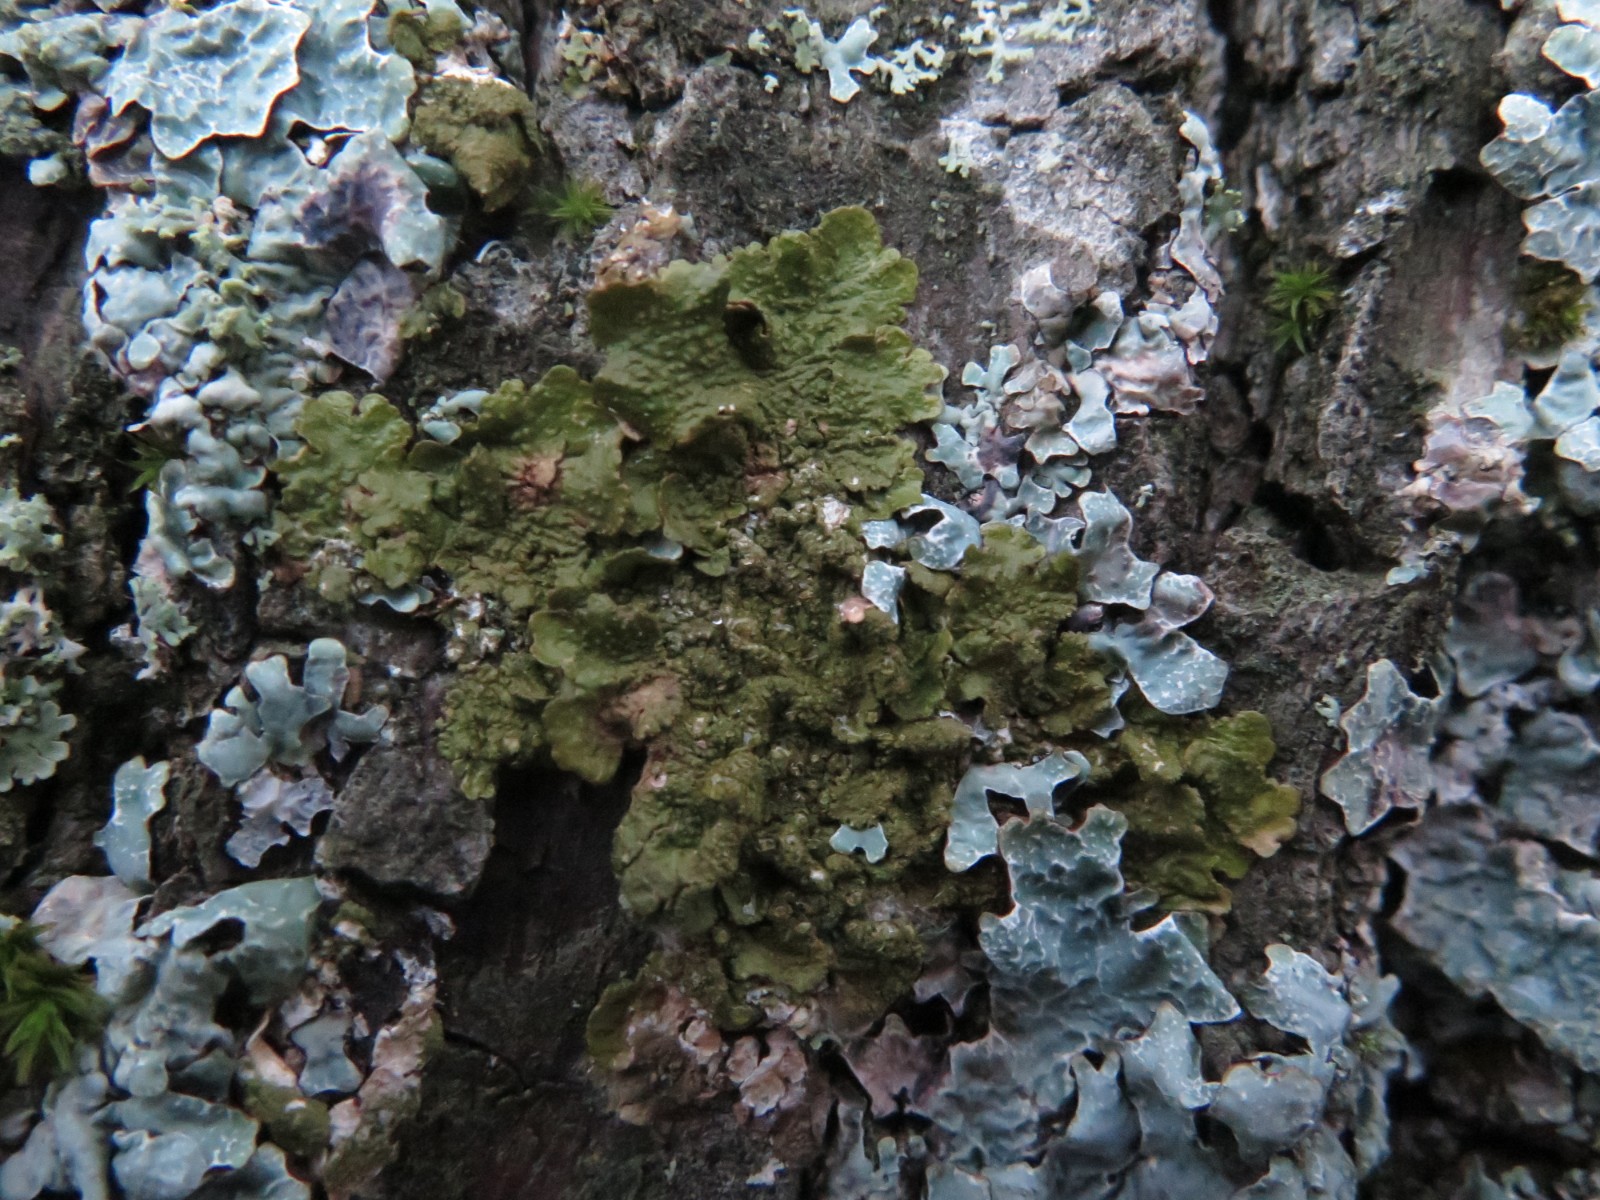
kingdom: Fungi
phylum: Ascomycota
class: Lecanoromycetes
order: Lecanorales
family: Parmeliaceae
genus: Melanelixia
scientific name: Melanelixia subaurifera
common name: guldpudret skållav
